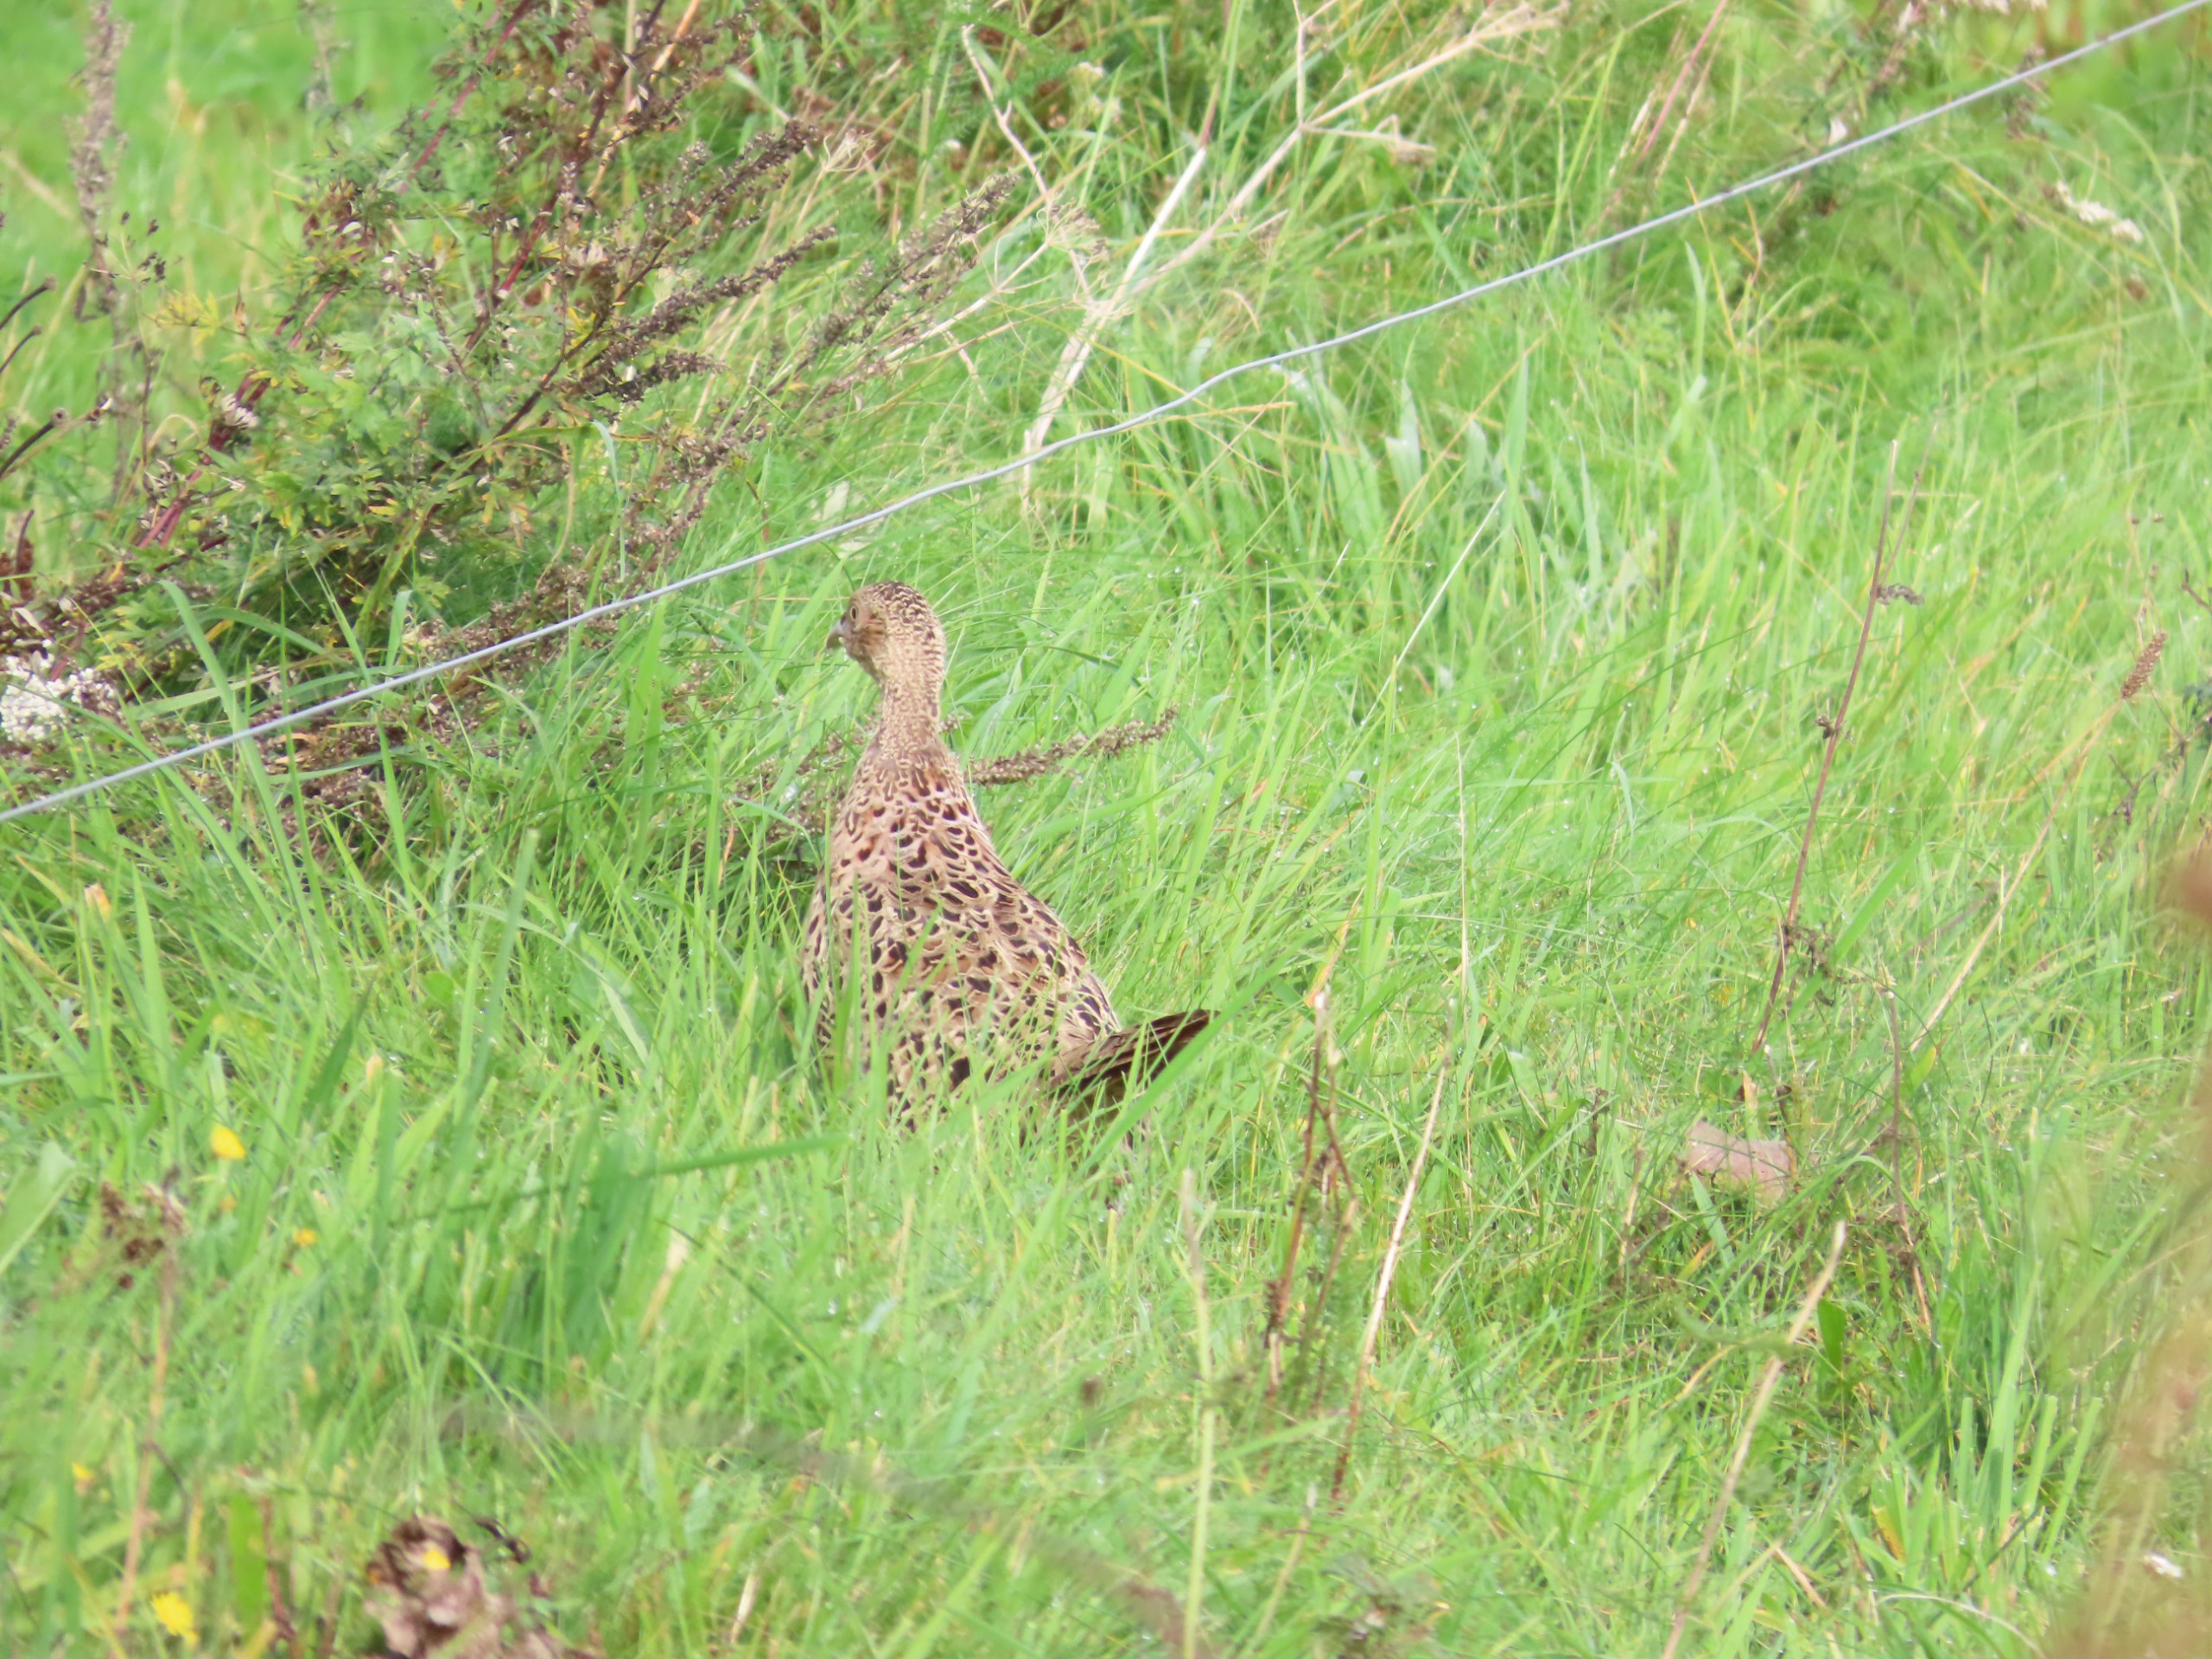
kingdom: Animalia
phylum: Chordata
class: Aves
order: Galliformes
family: Phasianidae
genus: Phasianus
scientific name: Phasianus colchicus
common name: Fasan
